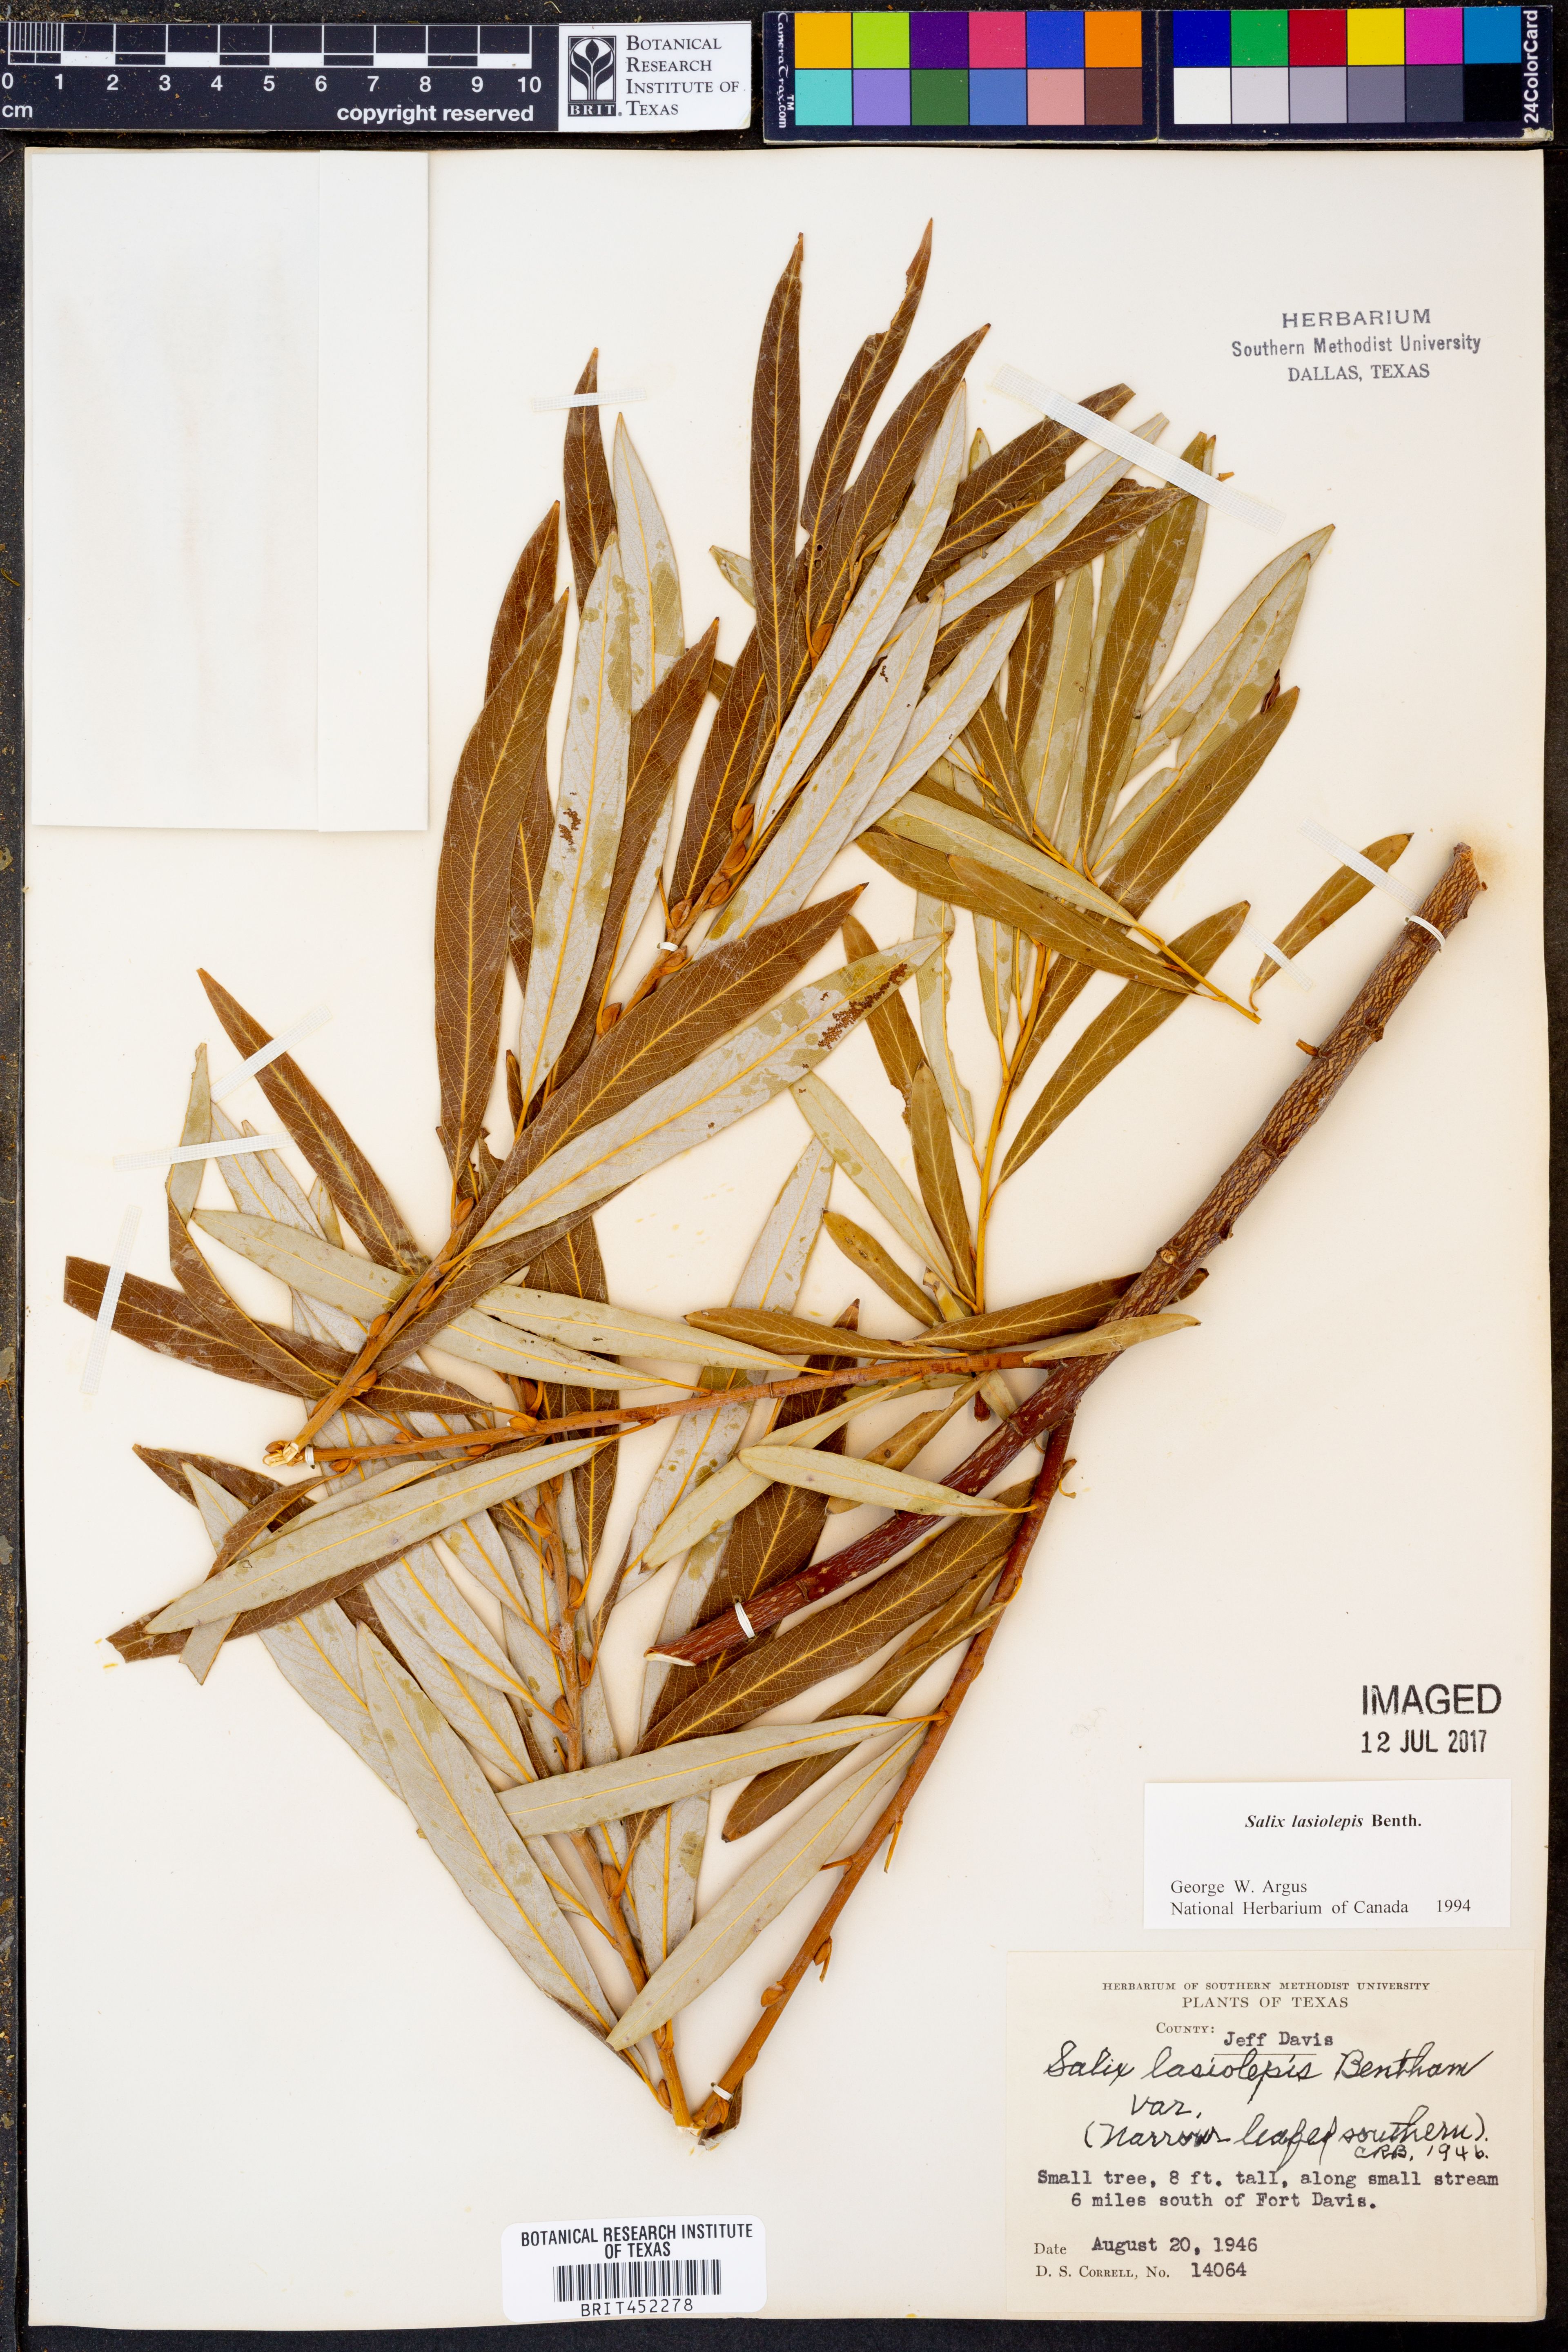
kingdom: Plantae
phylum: Tracheophyta
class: Magnoliopsida
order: Malpighiales
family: Salicaceae
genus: Salix
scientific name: Salix lasiolepis
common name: Arroyo willow
